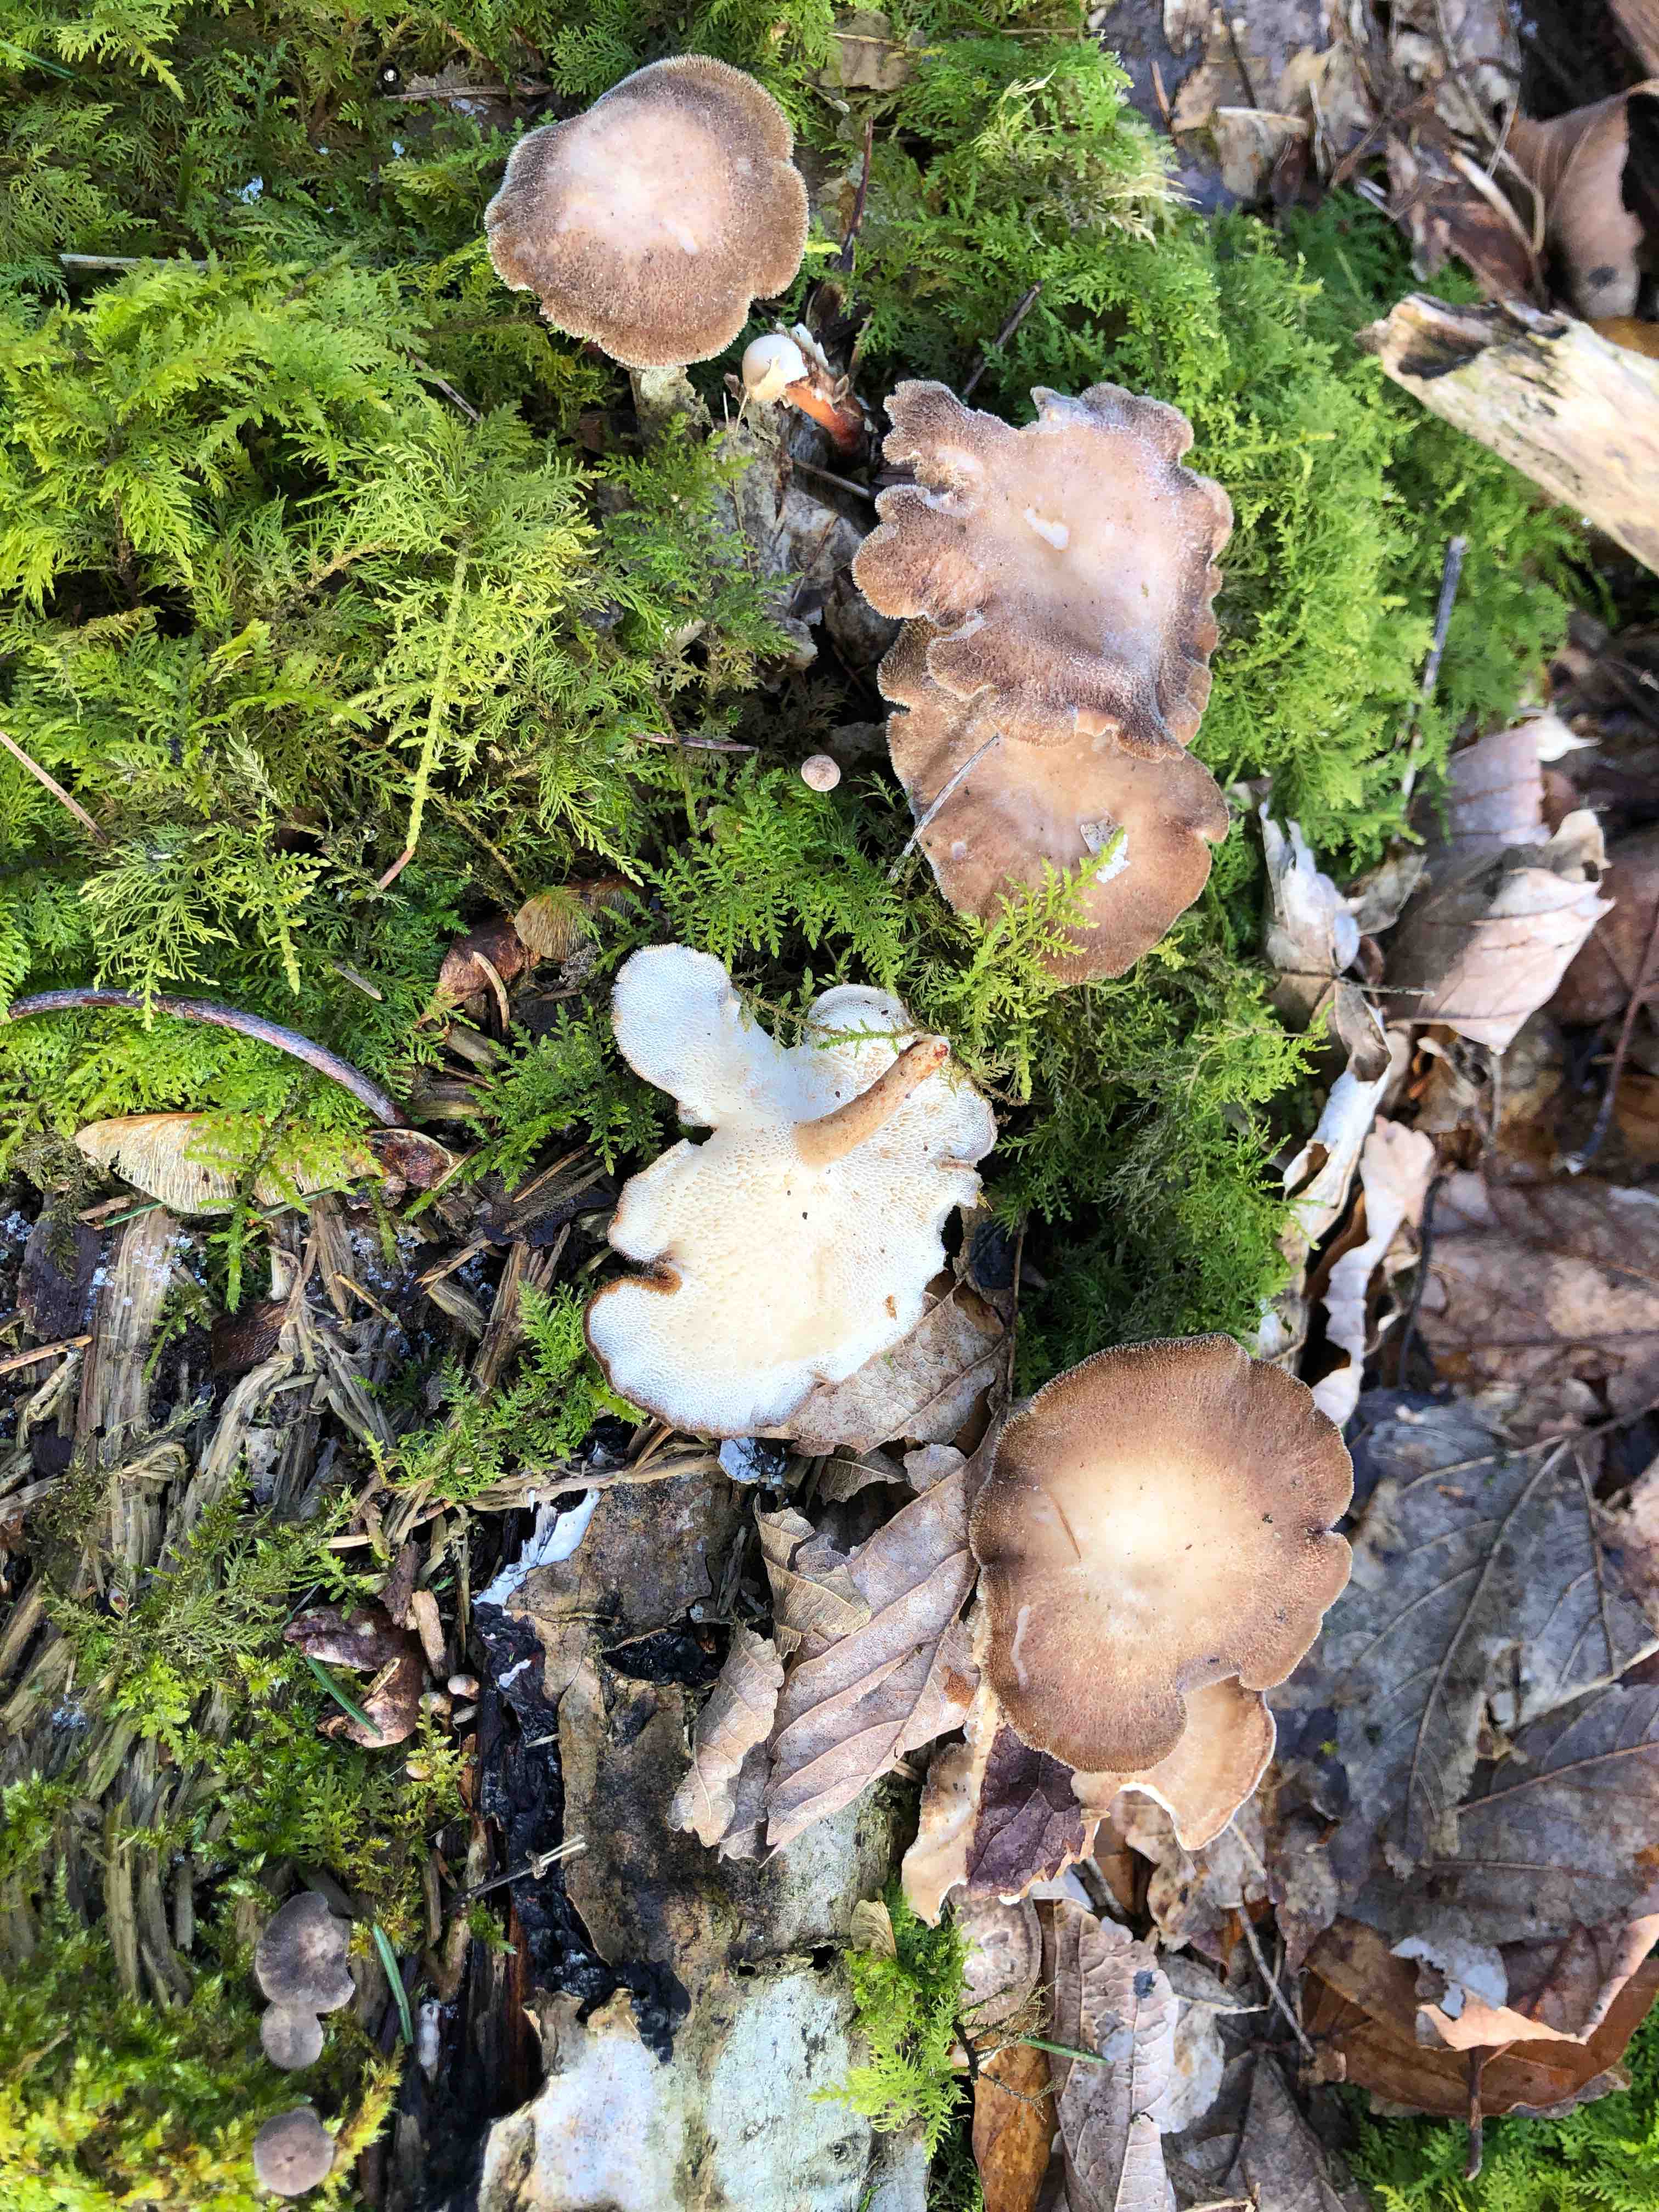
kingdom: Fungi
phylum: Basidiomycota
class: Agaricomycetes
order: Polyporales
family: Polyporaceae
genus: Lentinus
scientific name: Lentinus brumalis
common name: vinter-stilkporesvamp
